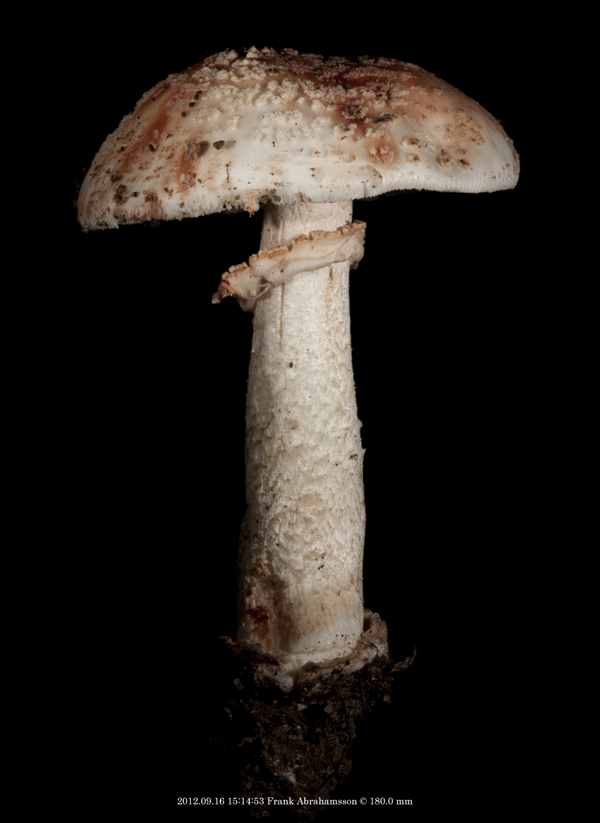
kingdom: Fungi
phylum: Basidiomycota
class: Agaricomycetes
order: Agaricales
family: Amanitaceae
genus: Amanita
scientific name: Amanita rubescens
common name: rødmende fluesvamp
